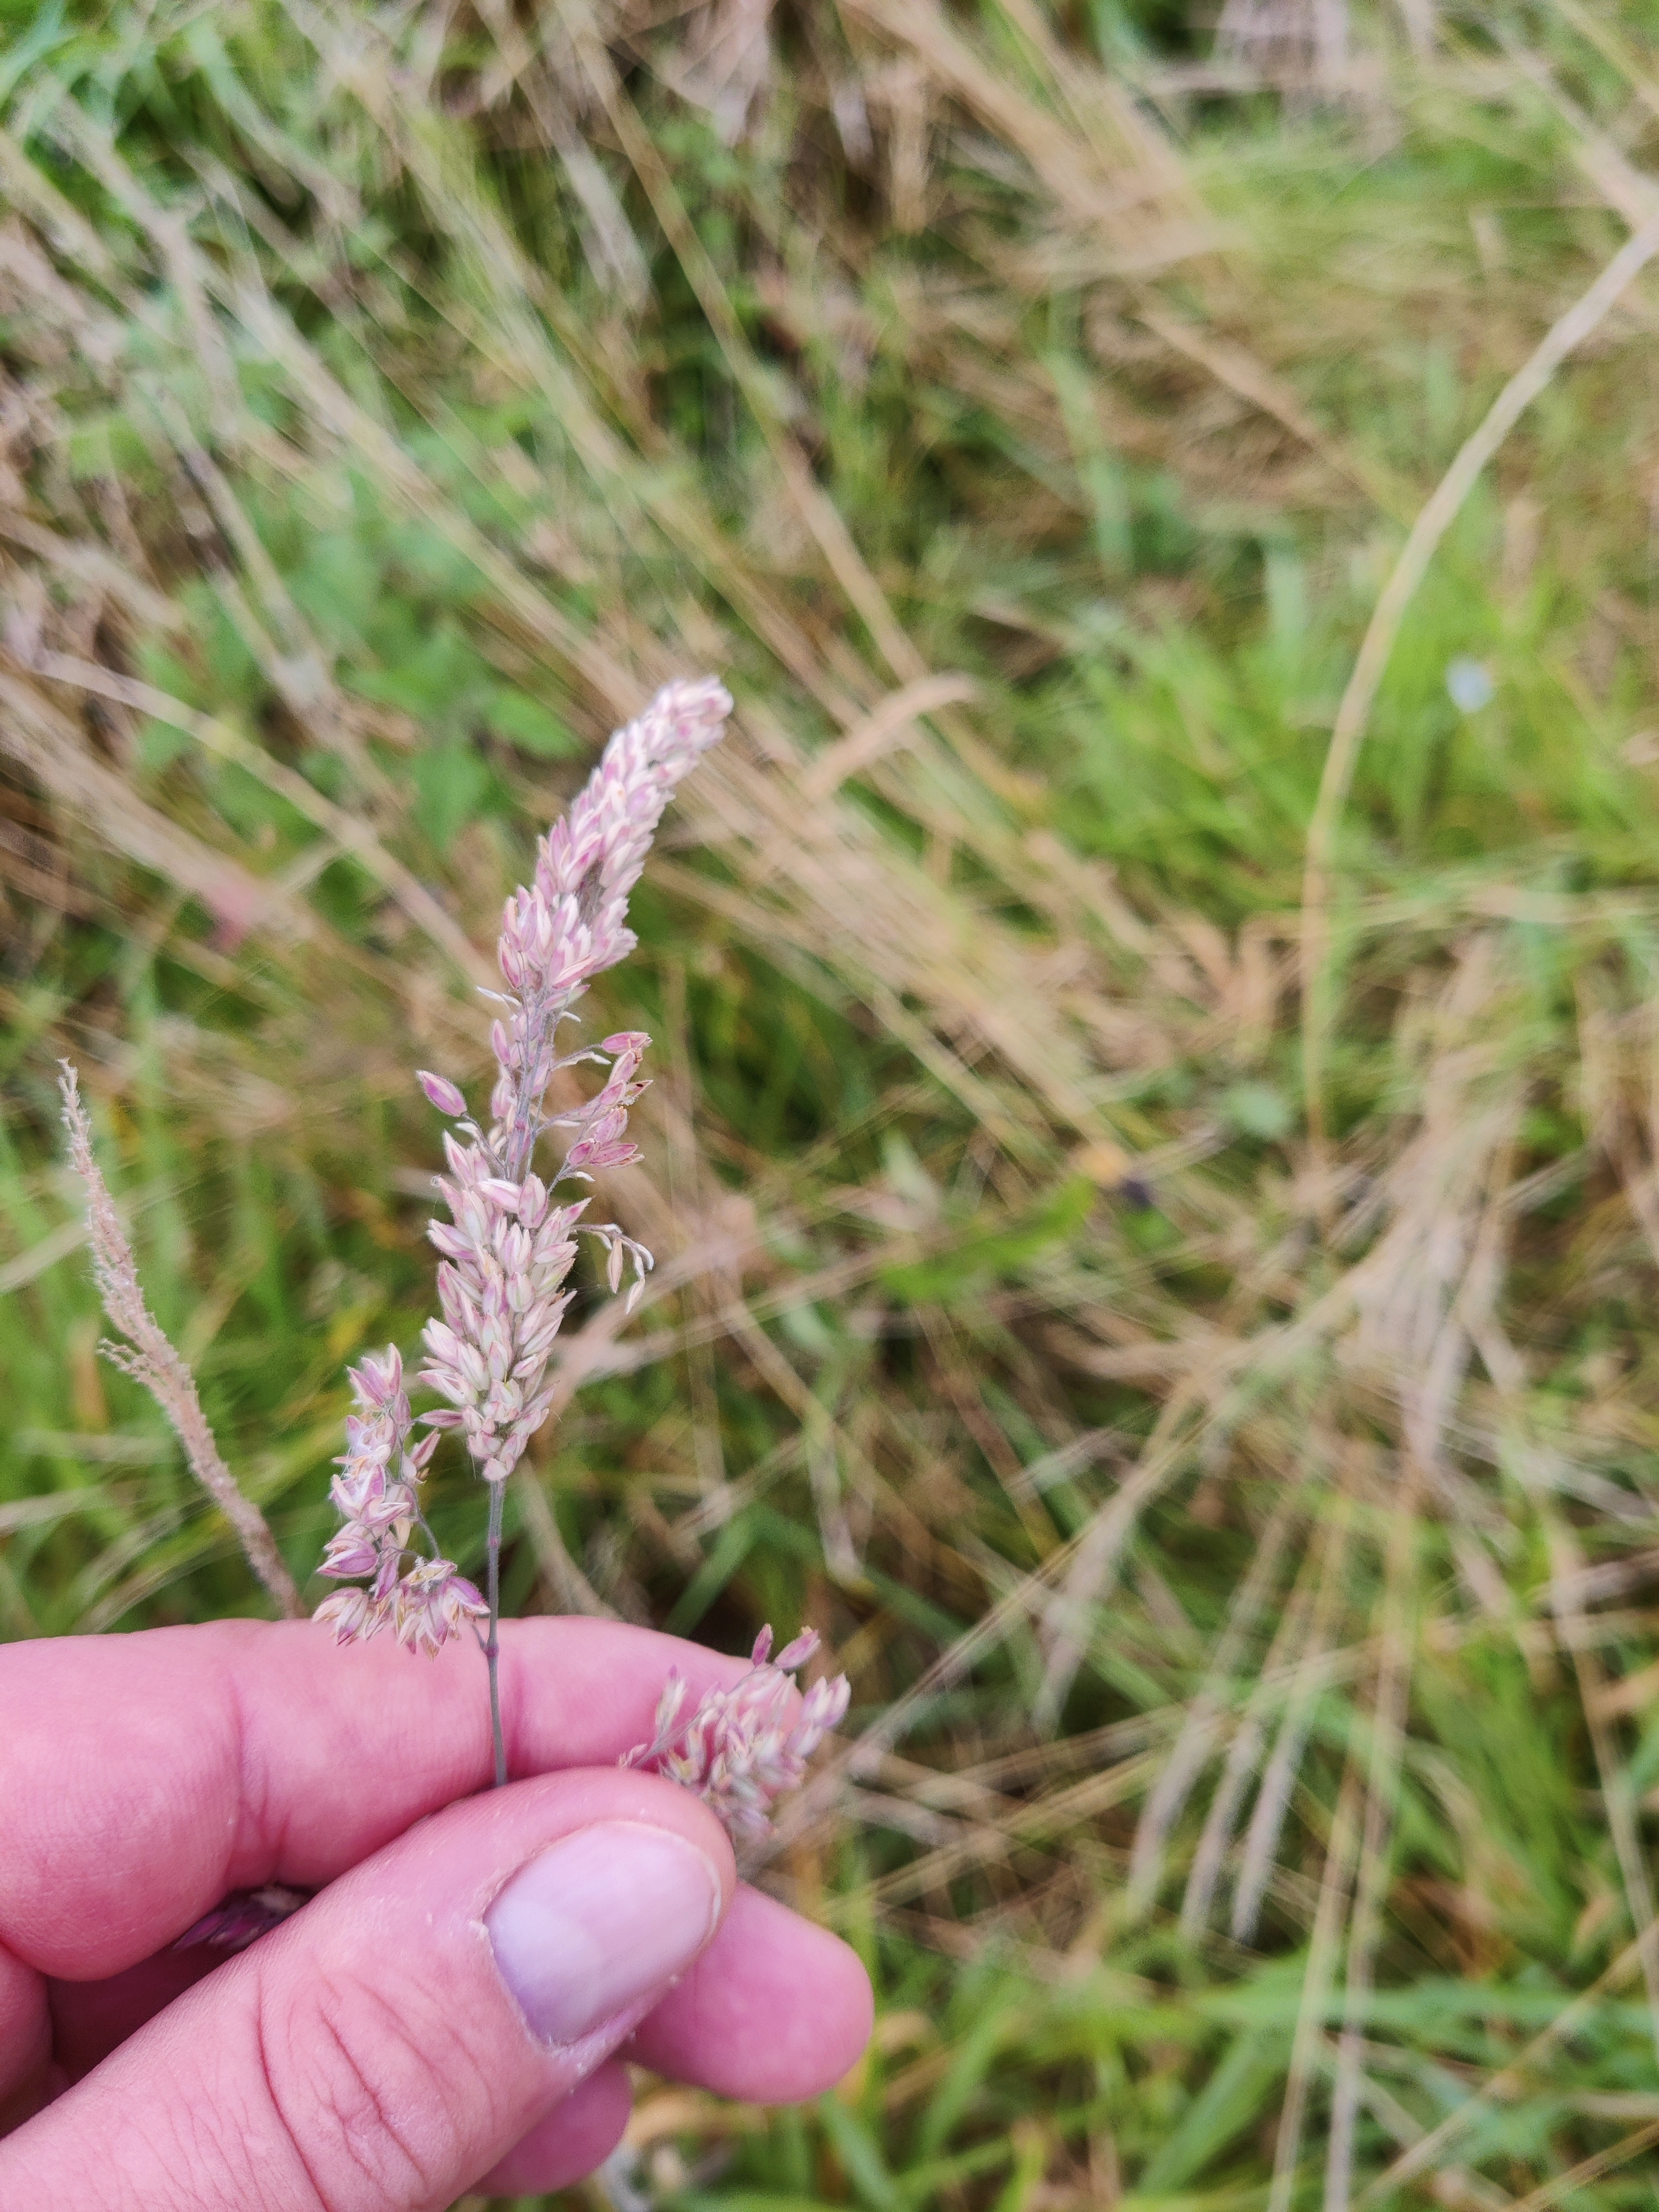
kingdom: Plantae
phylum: Tracheophyta
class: Liliopsida
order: Poales
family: Poaceae
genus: Holcus
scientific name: Holcus lanatus
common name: Fløjlsgræs
